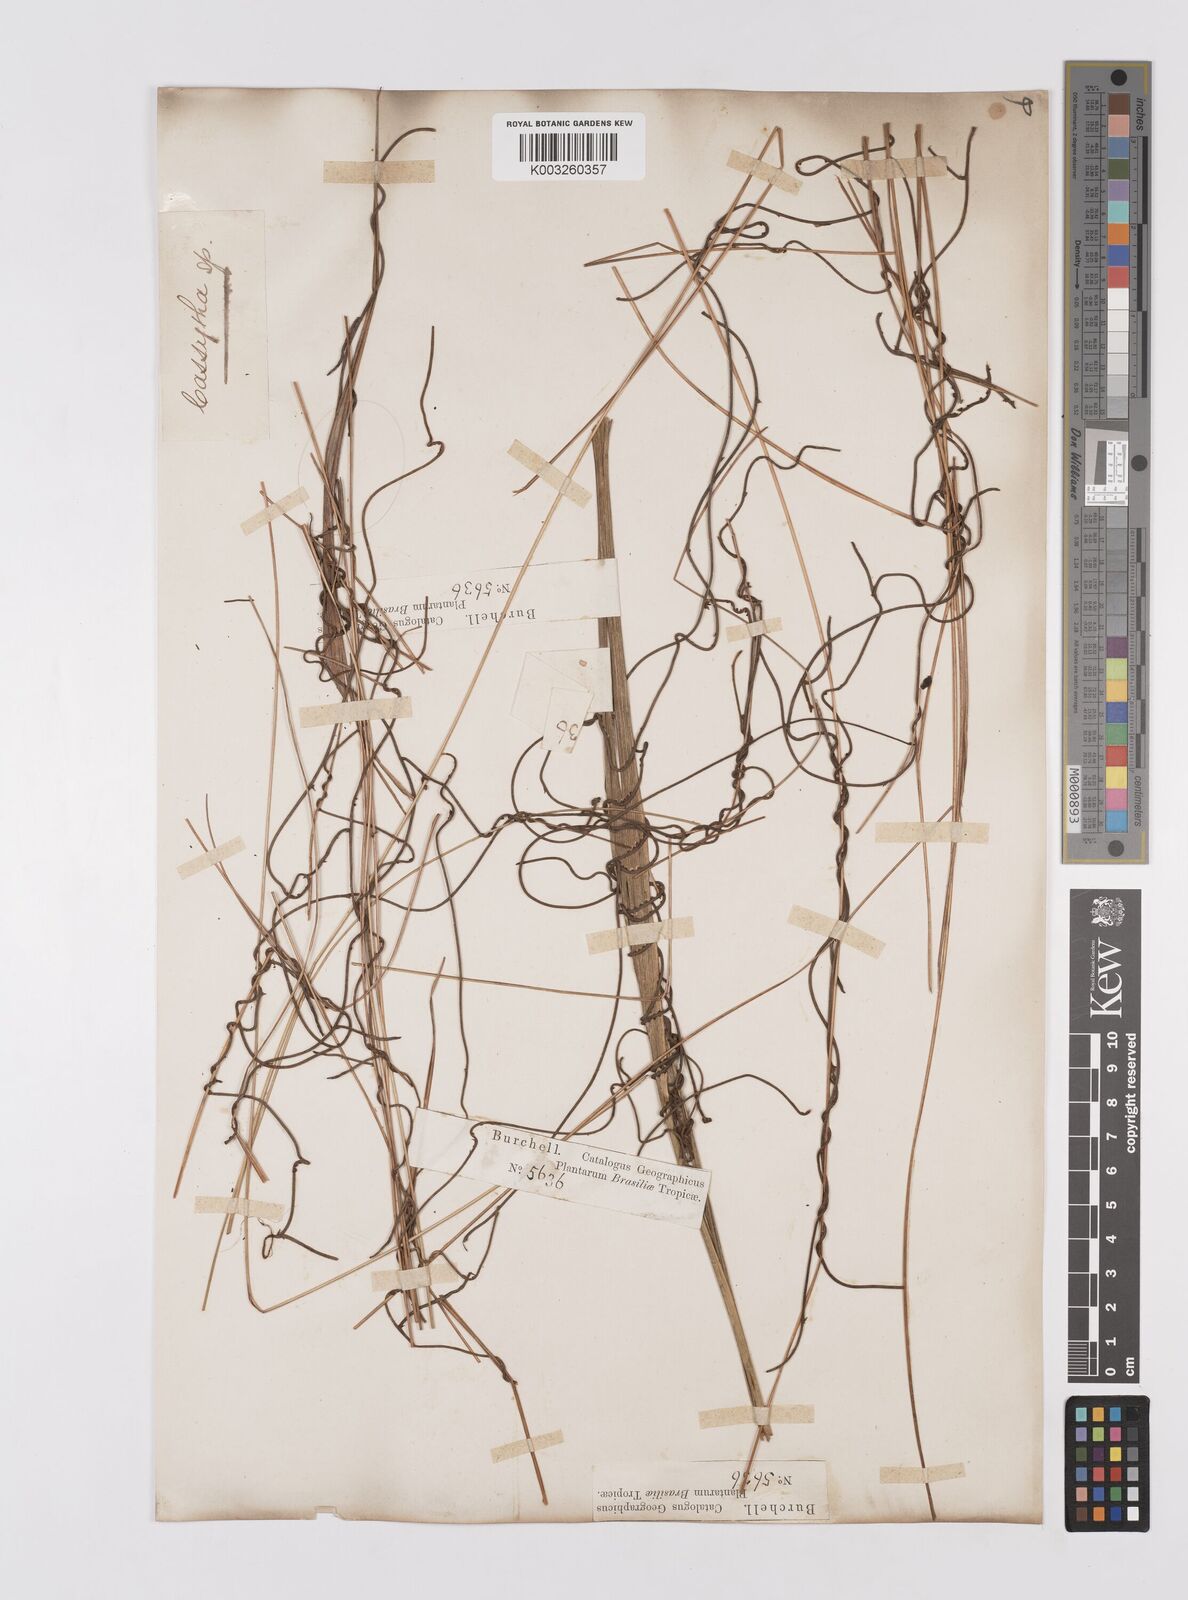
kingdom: Plantae
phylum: Tracheophyta
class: Magnoliopsida
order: Laurales
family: Lauraceae
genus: Cassytha
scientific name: Cassytha filiformis
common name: Dodder-laurel
